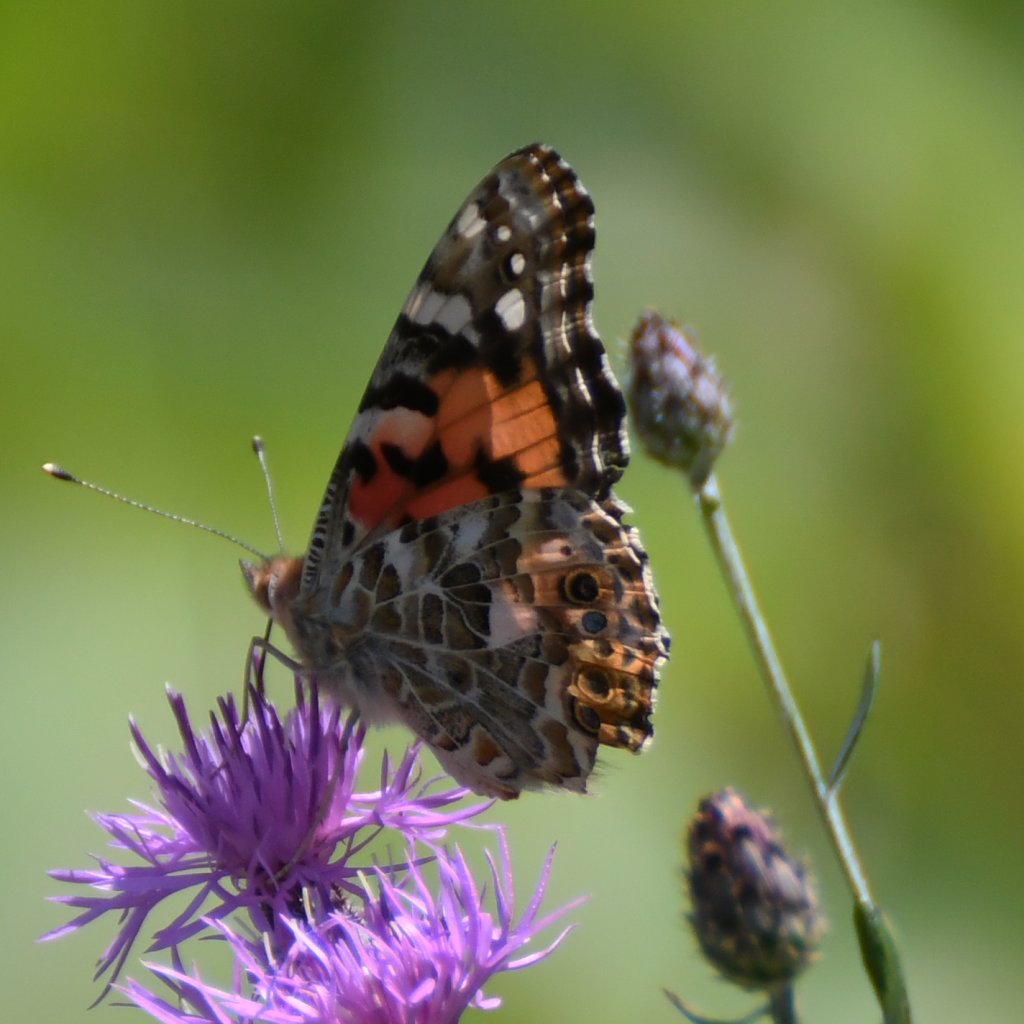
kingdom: Animalia
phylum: Arthropoda
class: Insecta
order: Lepidoptera
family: Nymphalidae
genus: Vanessa
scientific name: Vanessa cardui
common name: Painted Lady
